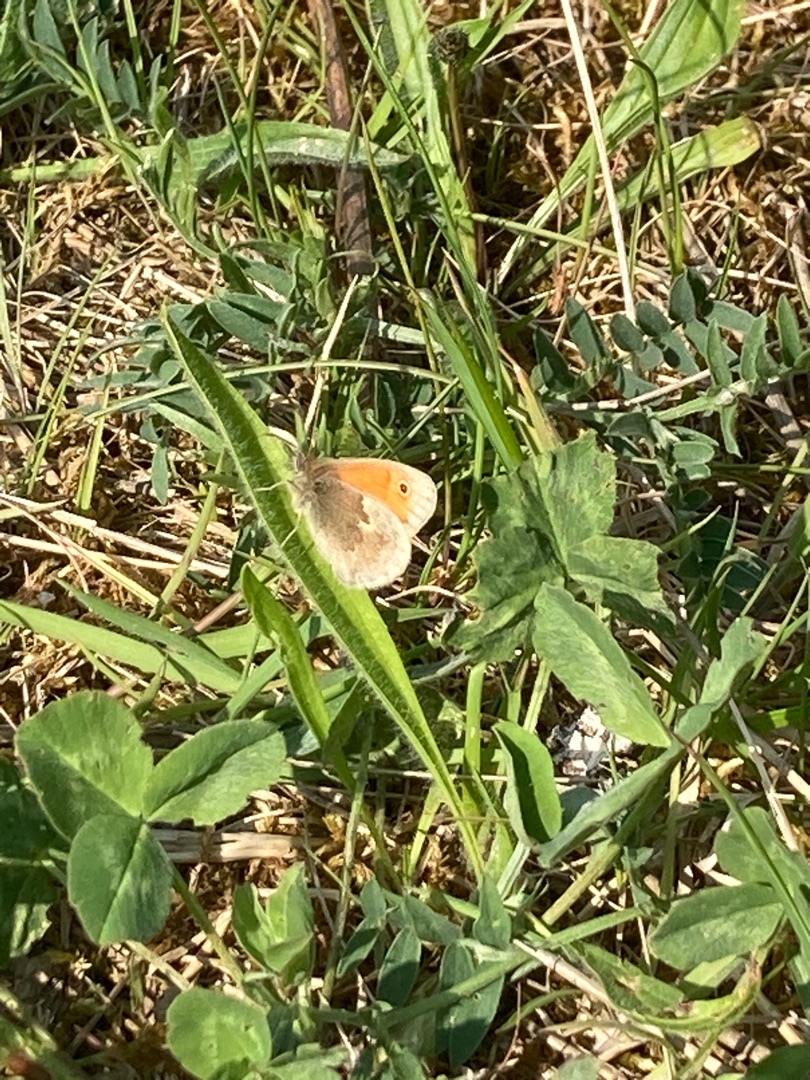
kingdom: Animalia
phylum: Arthropoda
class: Insecta
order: Lepidoptera
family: Nymphalidae
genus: Coenonympha
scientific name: Coenonympha pamphilus
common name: Okkergul randøje
